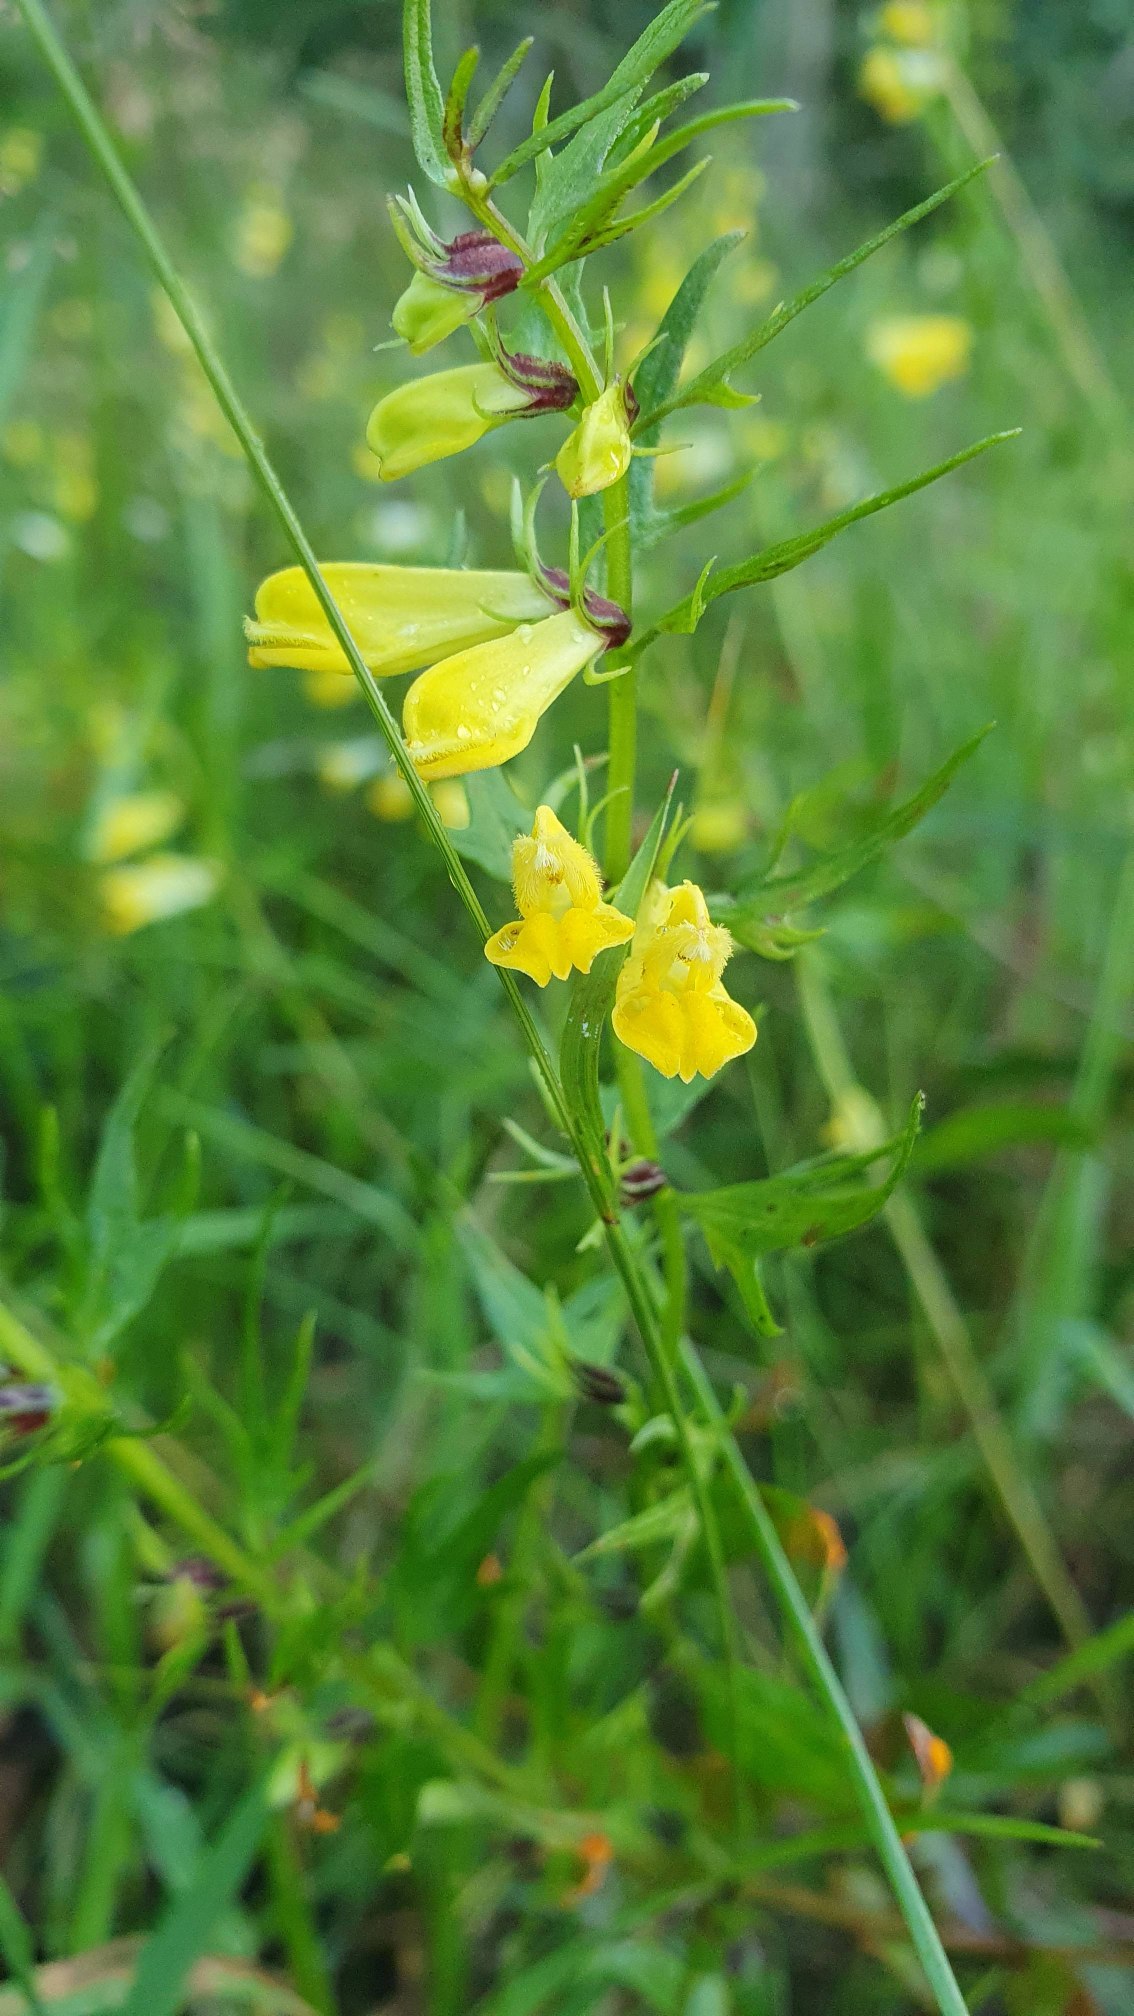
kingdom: Plantae
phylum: Tracheophyta
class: Magnoliopsida
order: Lamiales
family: Orobanchaceae
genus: Melampyrum
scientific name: Melampyrum pratense
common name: Almindelig kohvede
